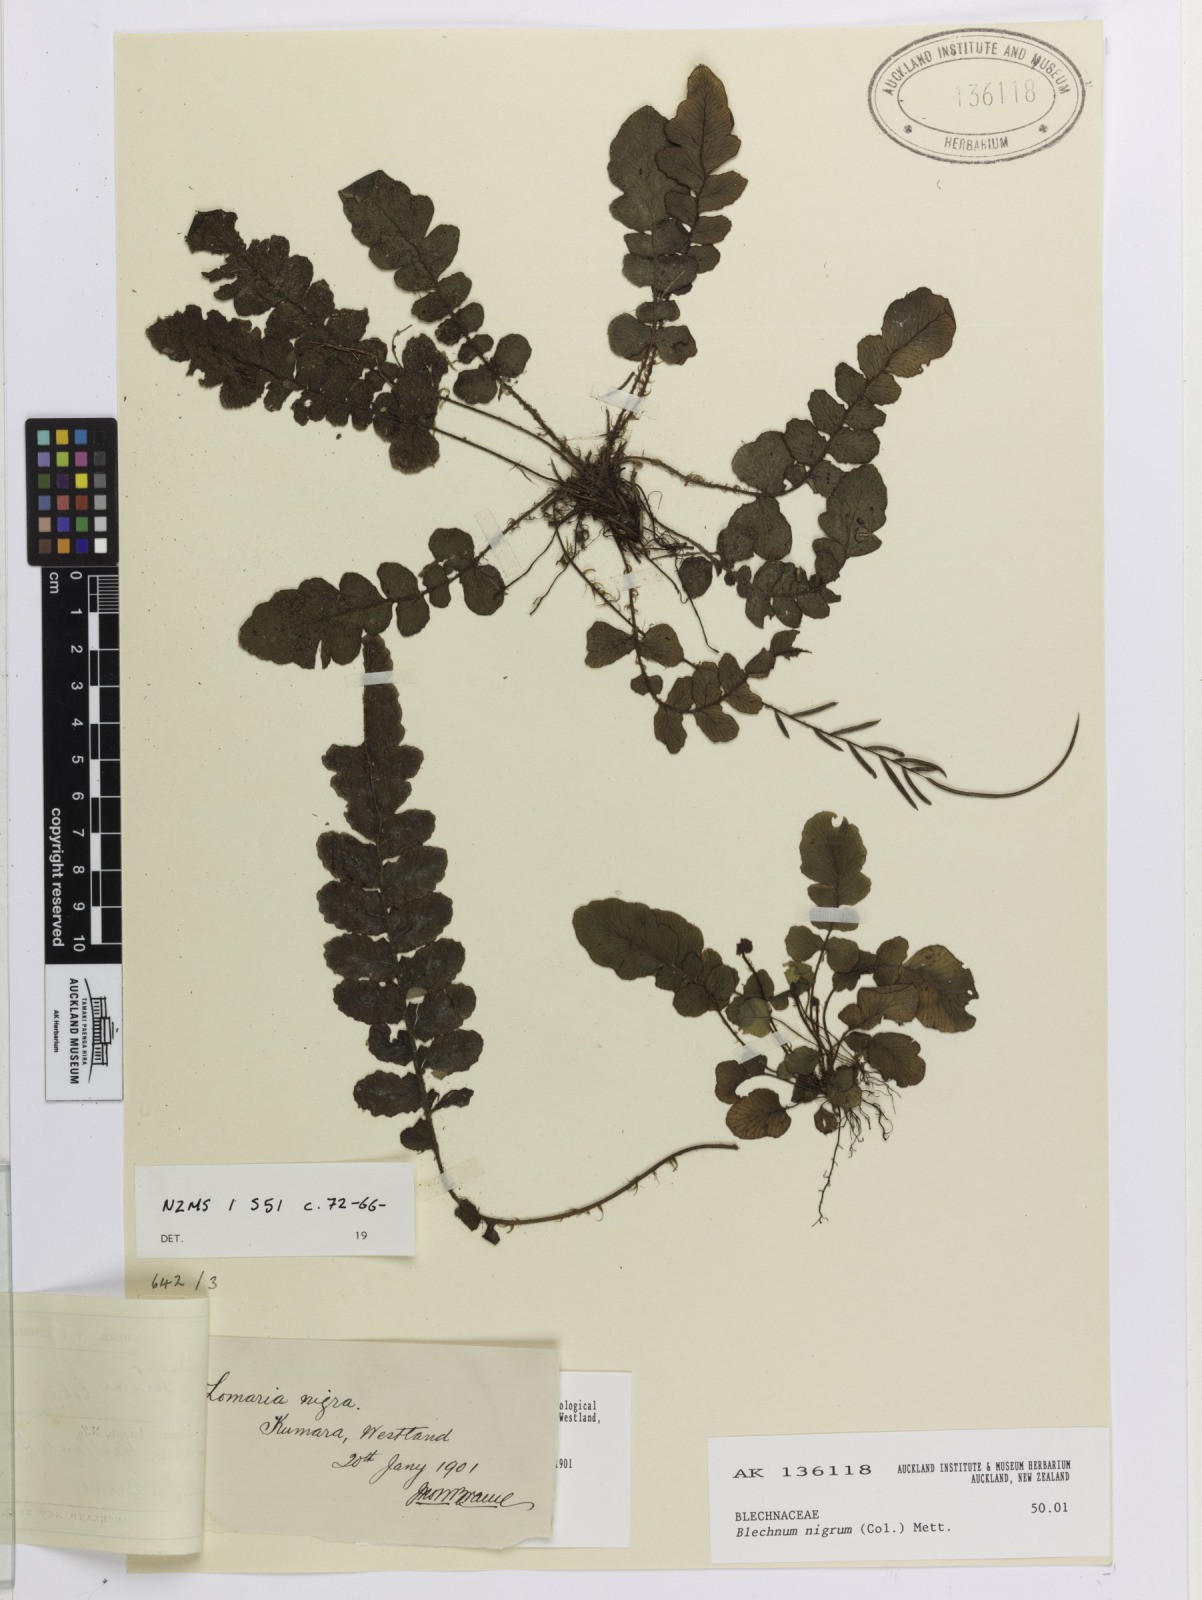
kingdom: Plantae
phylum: Tracheophyta
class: Polypodiopsida
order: Polypodiales
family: Blechnaceae
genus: Cranfillia
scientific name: Cranfillia nigra
